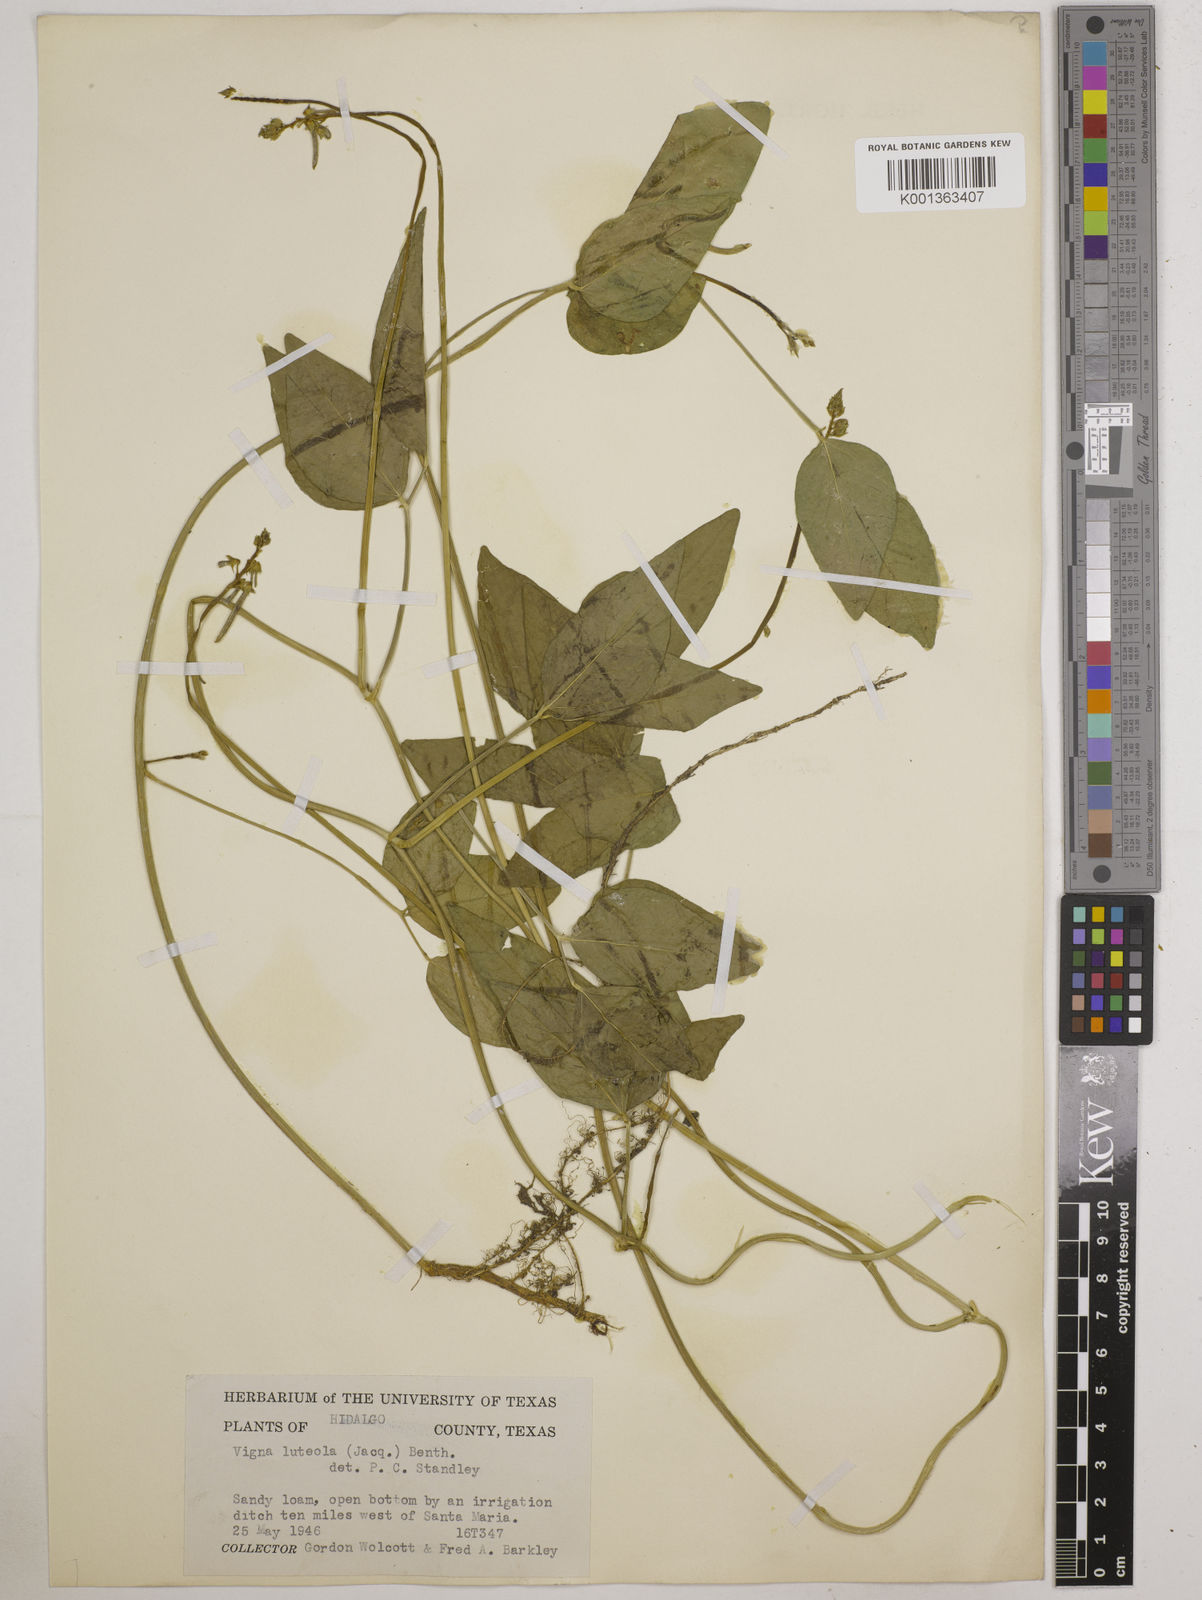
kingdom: Plantae
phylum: Tracheophyta
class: Magnoliopsida
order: Fabales
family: Fabaceae
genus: Vigna
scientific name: Vigna luteola
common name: Hairypod cowpea
